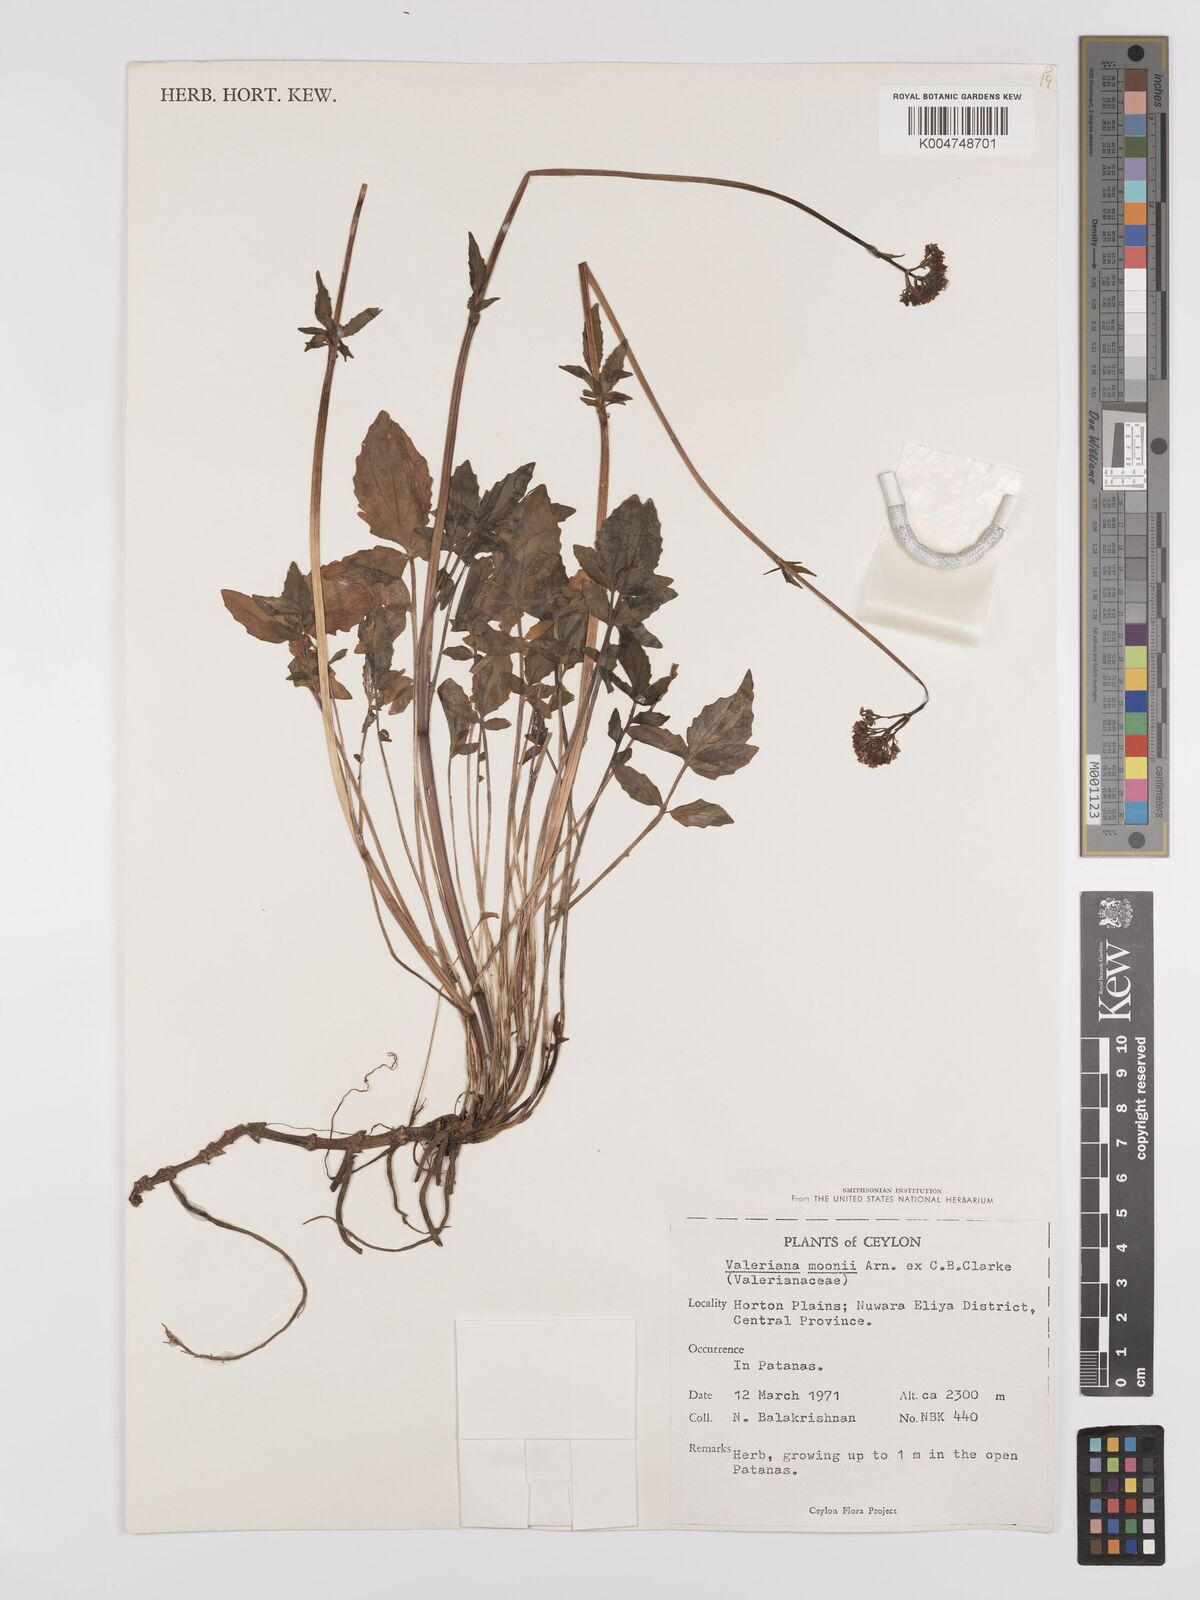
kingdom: Plantae
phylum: Tracheophyta
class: Magnoliopsida
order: Dipsacales
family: Caprifoliaceae
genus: Valeriana
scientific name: Valeriana moonii
